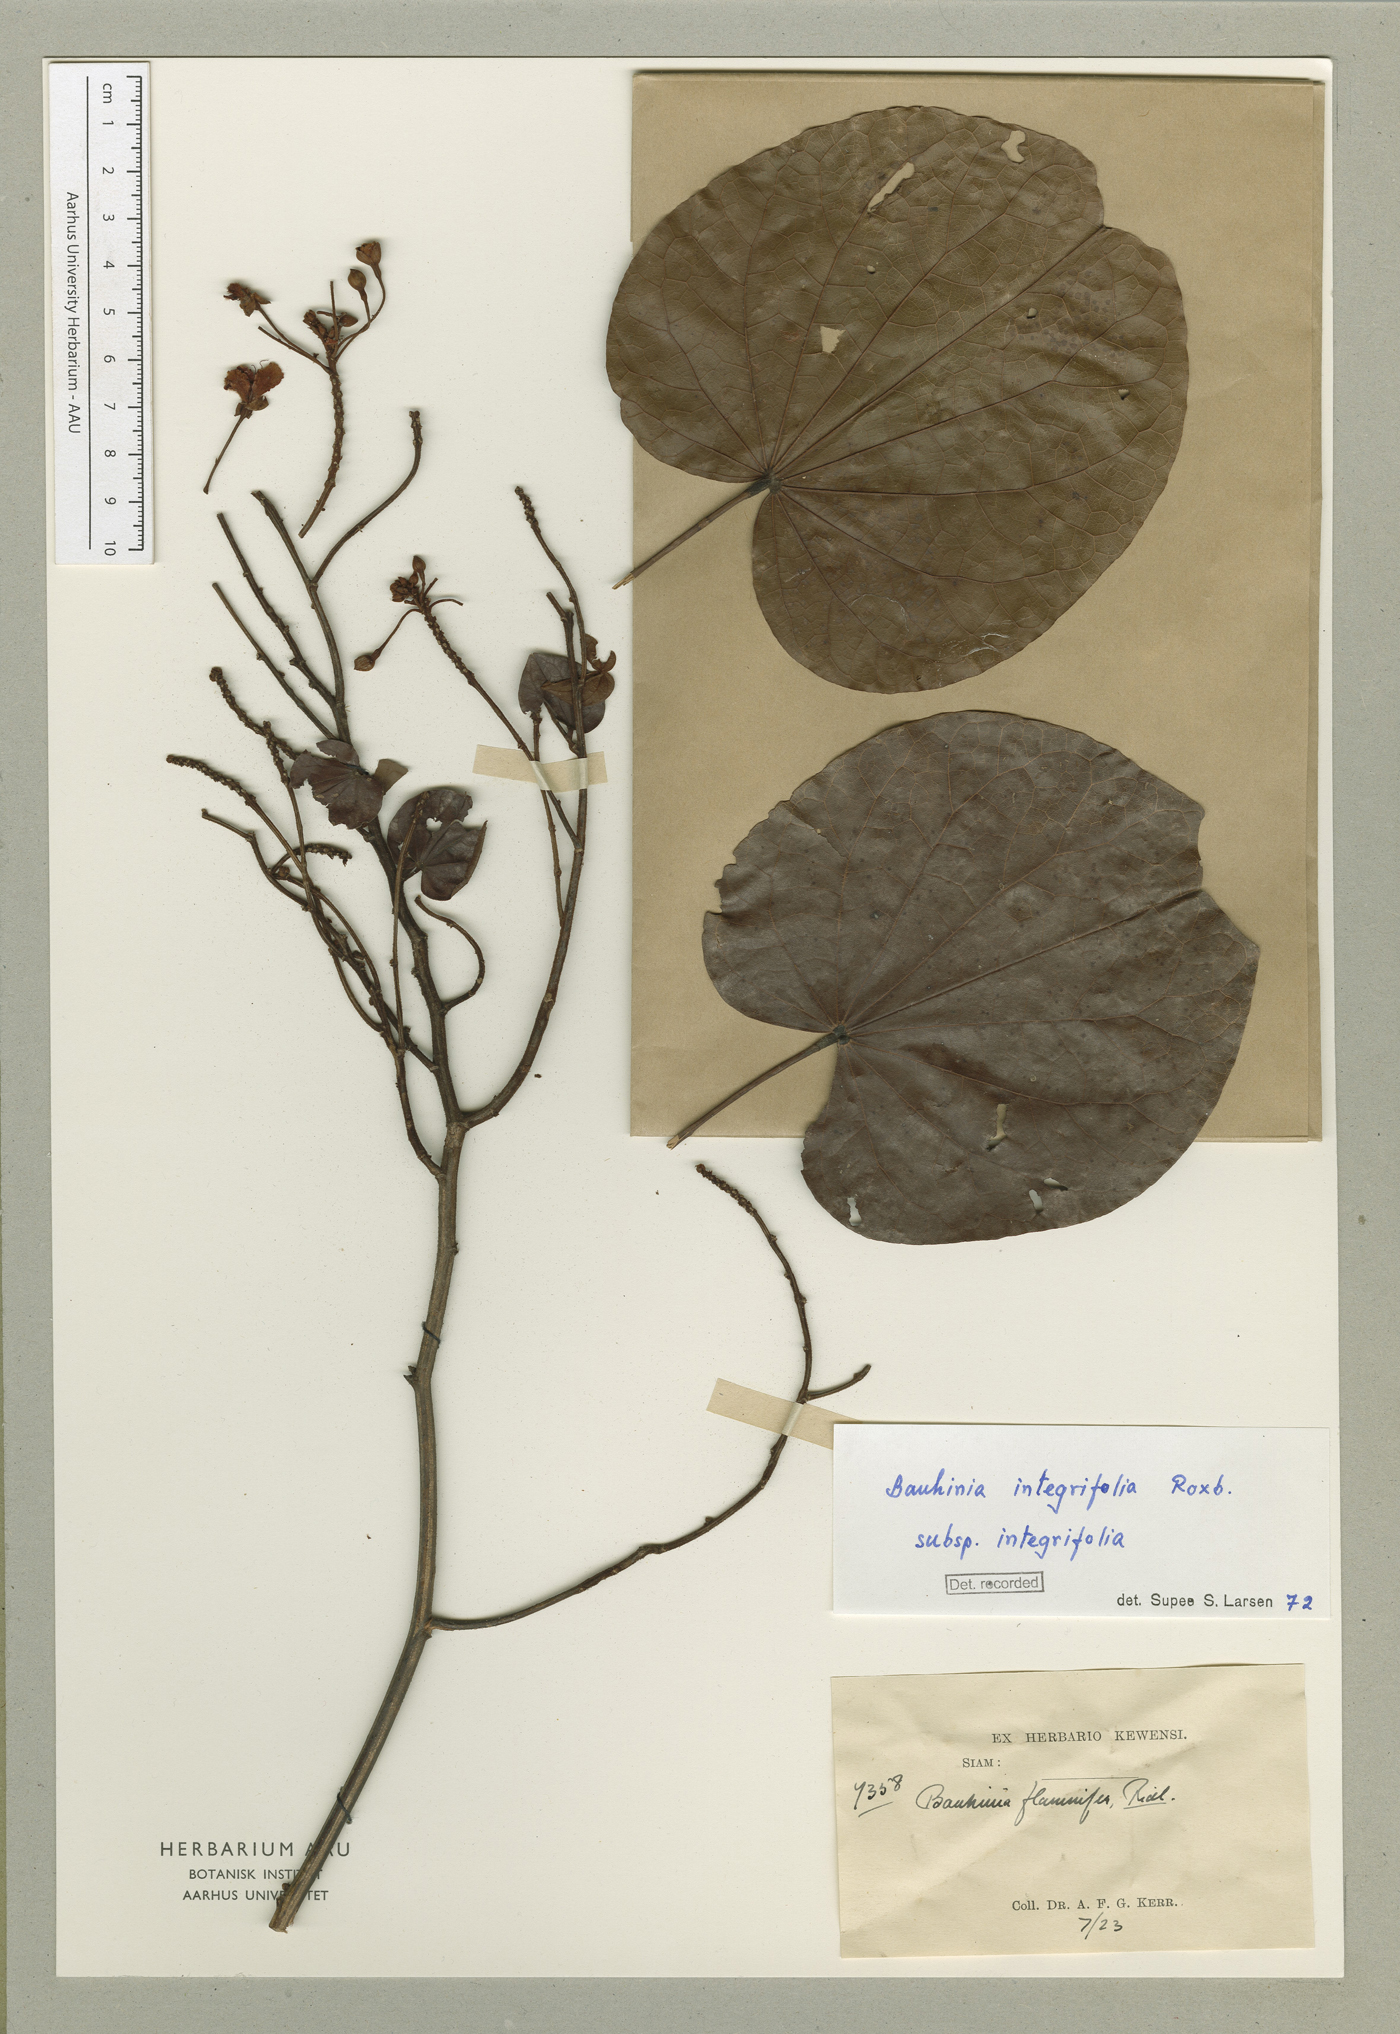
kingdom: Plantae
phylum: Tracheophyta
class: Magnoliopsida
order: Fabales
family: Fabaceae
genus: Phanera
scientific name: Phanera integrifolia
